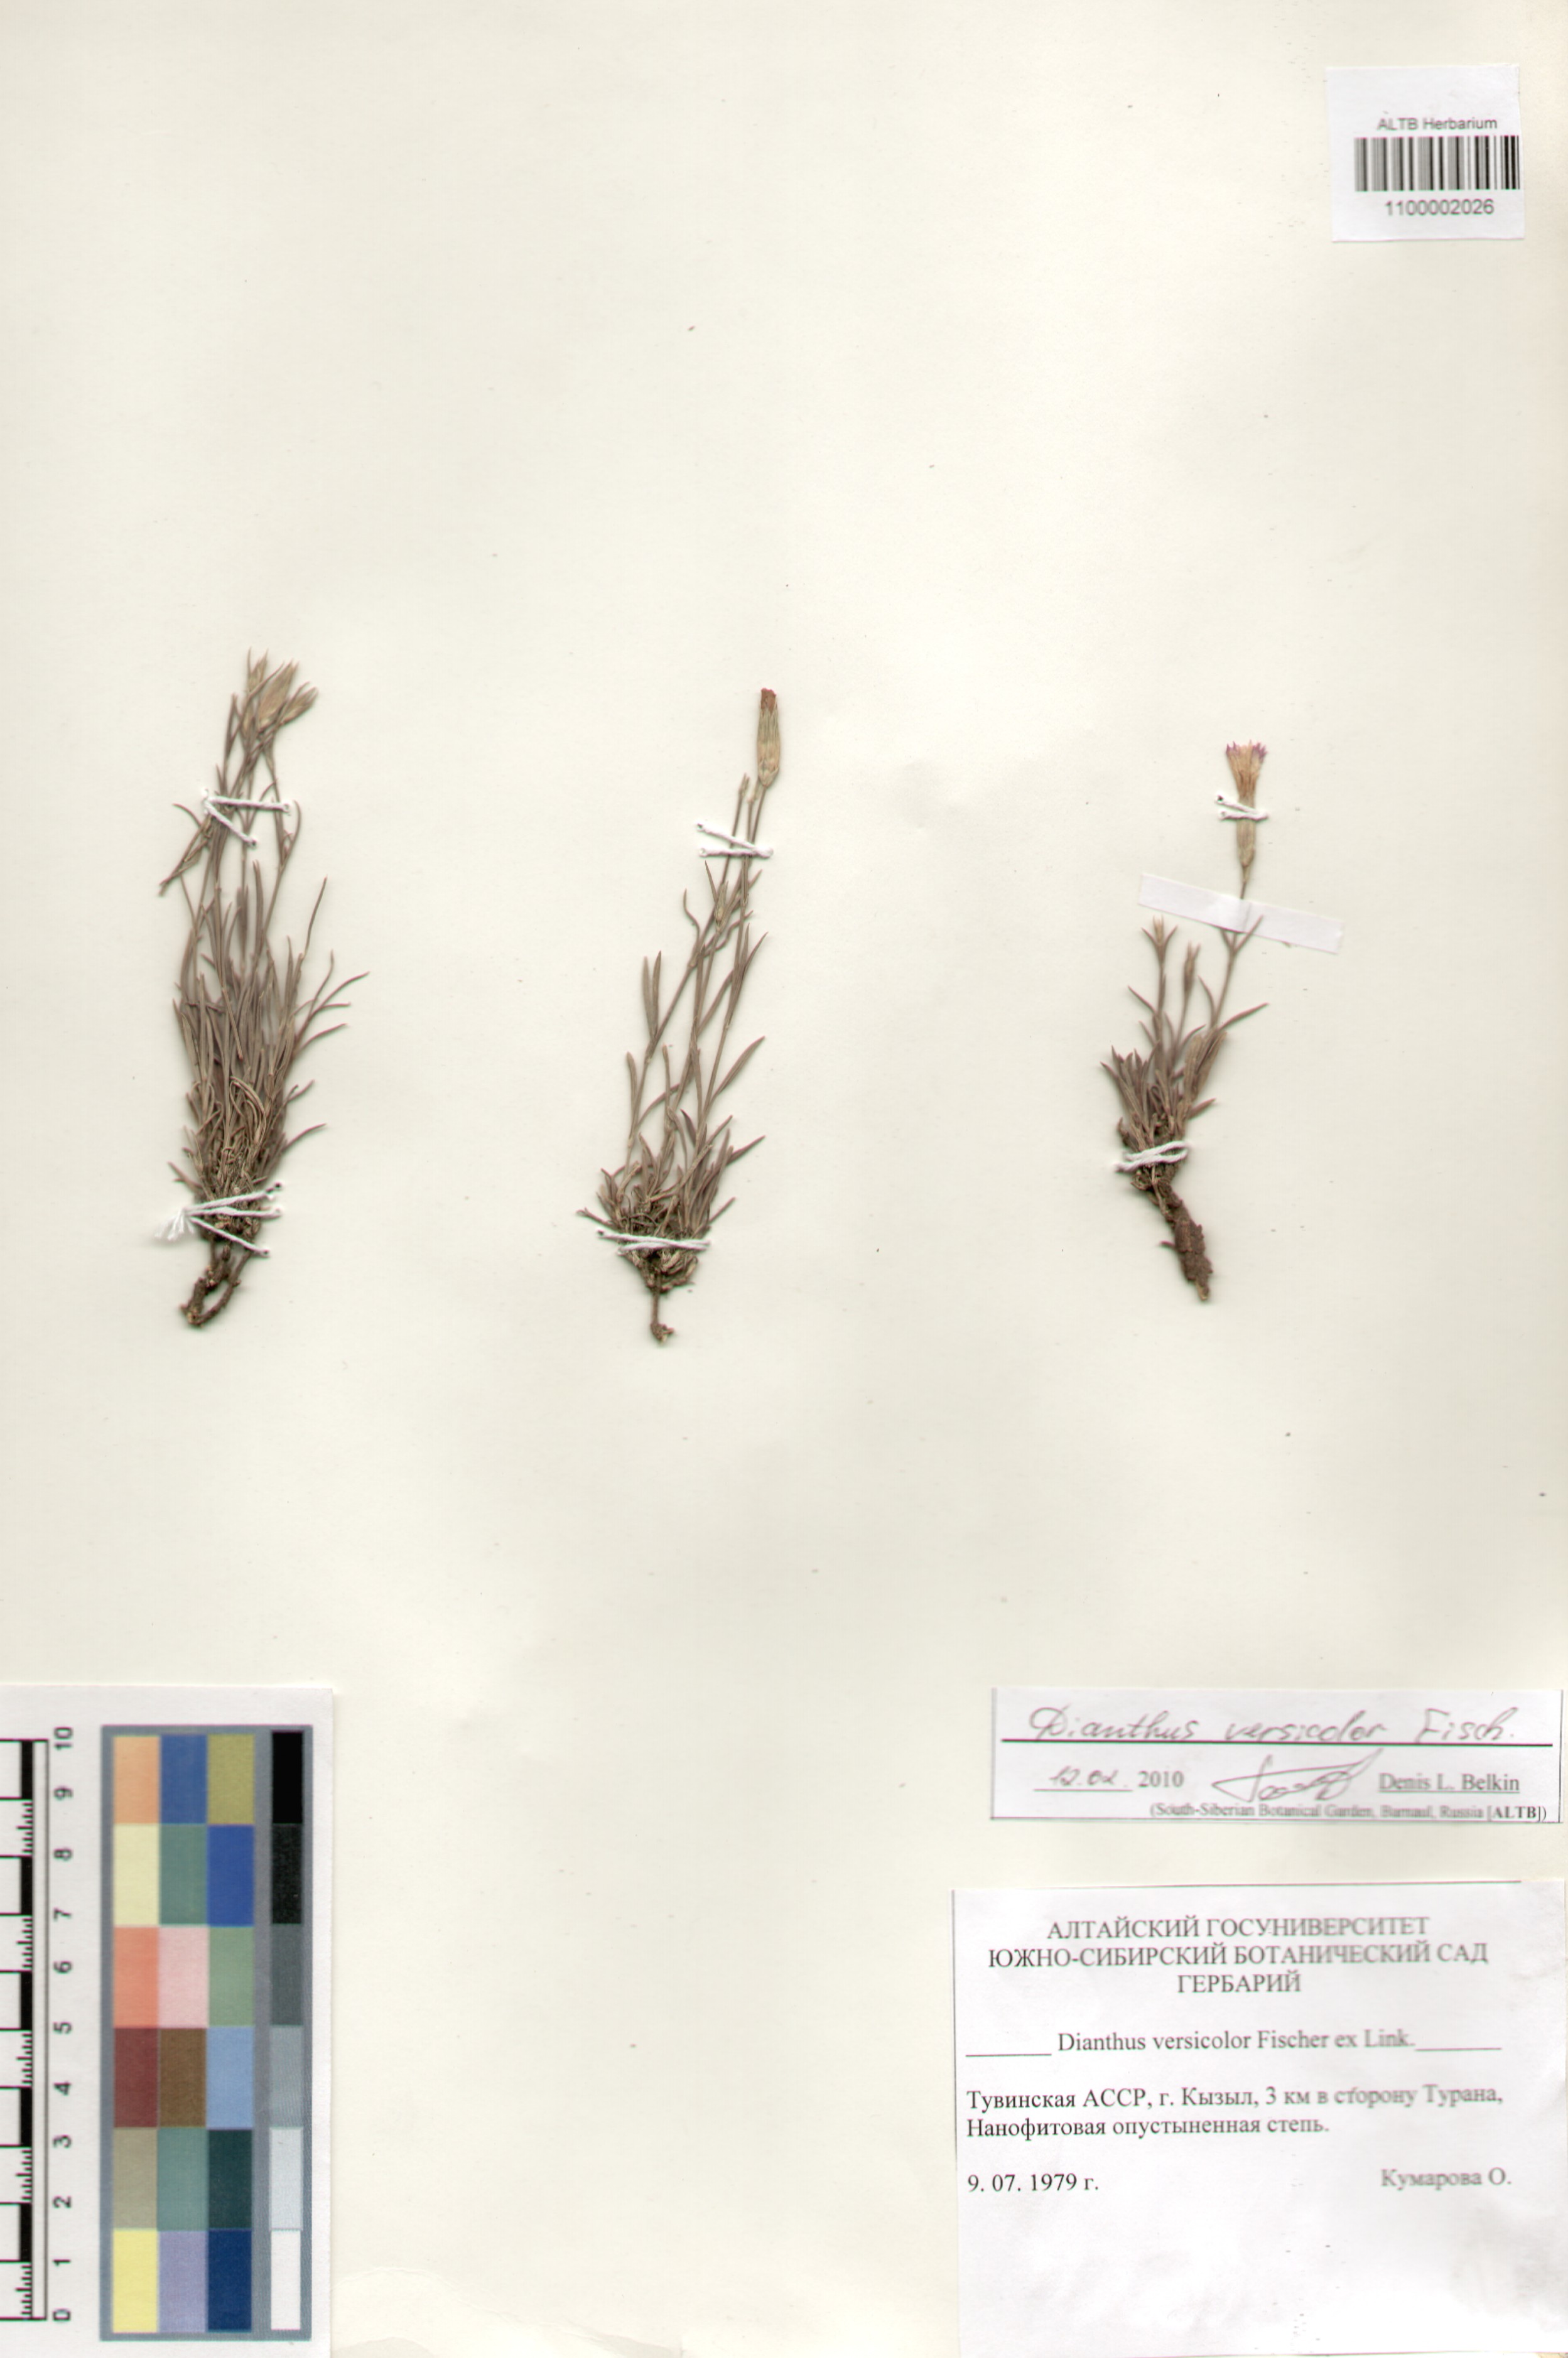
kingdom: Plantae
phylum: Tracheophyta
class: Magnoliopsida
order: Caryophyllales
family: Caryophyllaceae
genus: Dianthus
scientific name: Dianthus chinensis
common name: Rainbow pink
